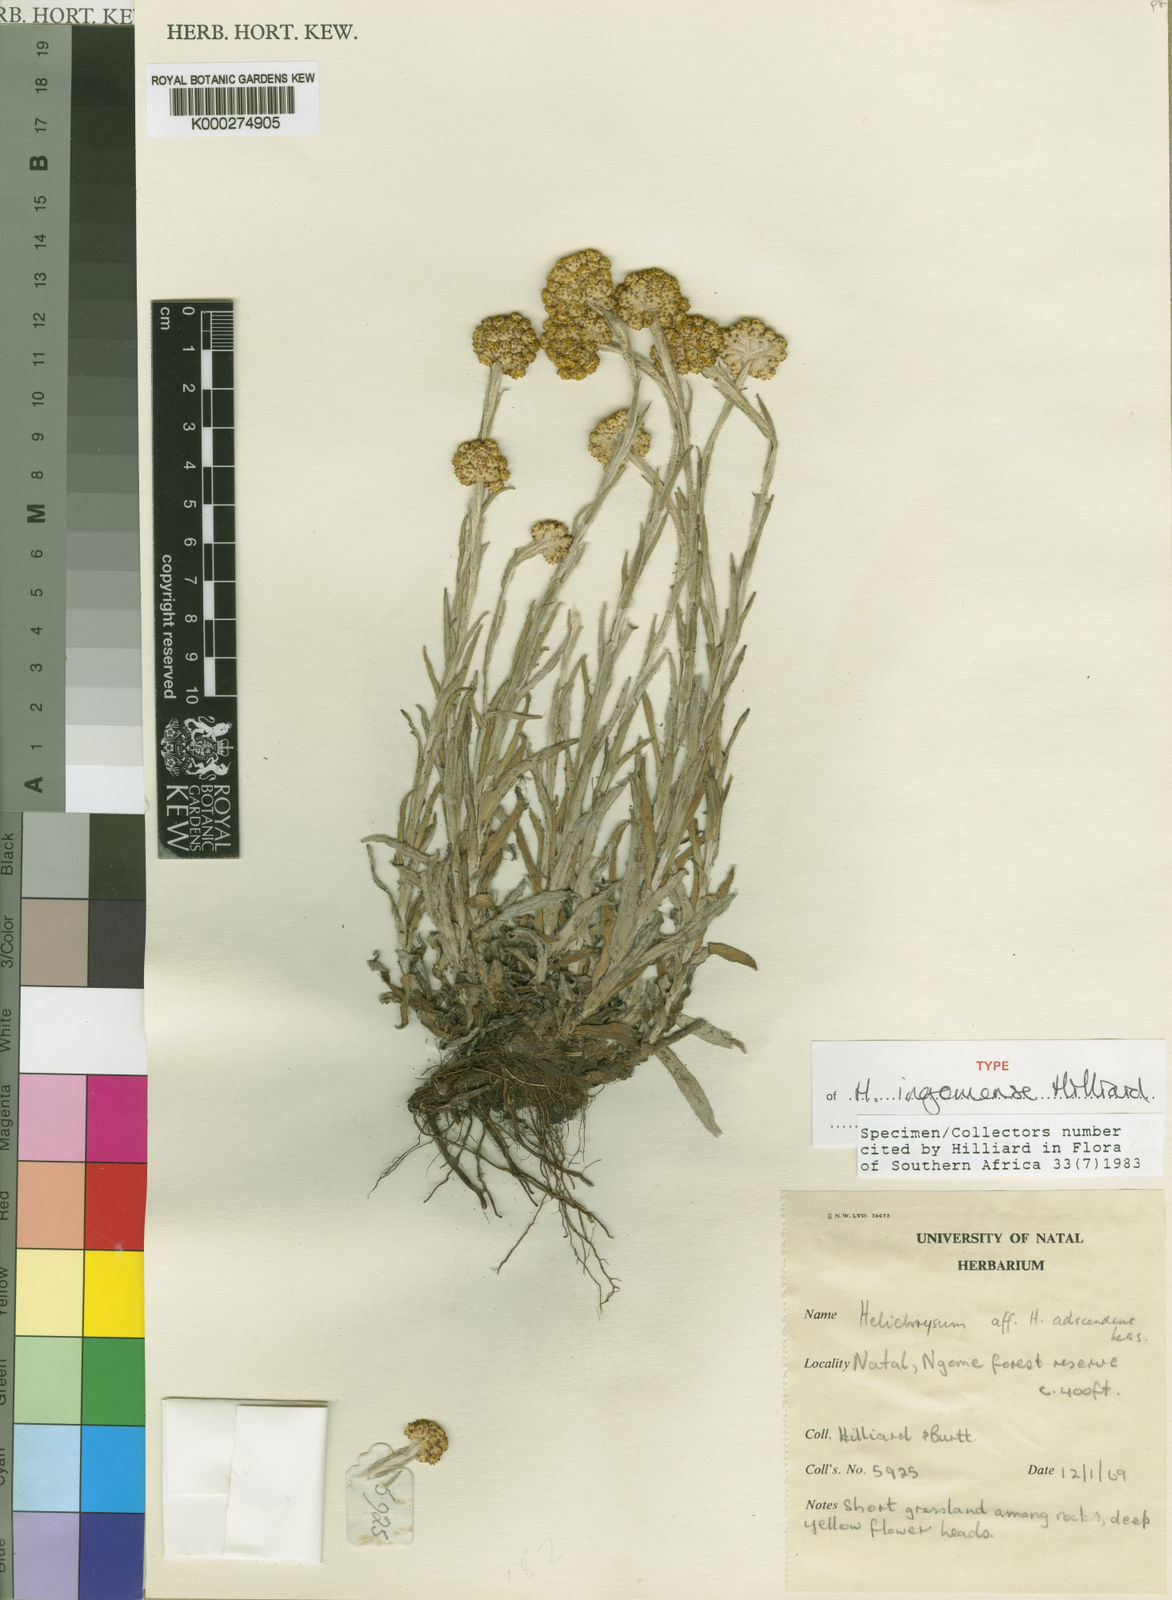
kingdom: Plantae
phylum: Tracheophyta
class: Magnoliopsida
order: Asterales
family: Asteraceae
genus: Helichrysum
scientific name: Helichrysum ingomense
